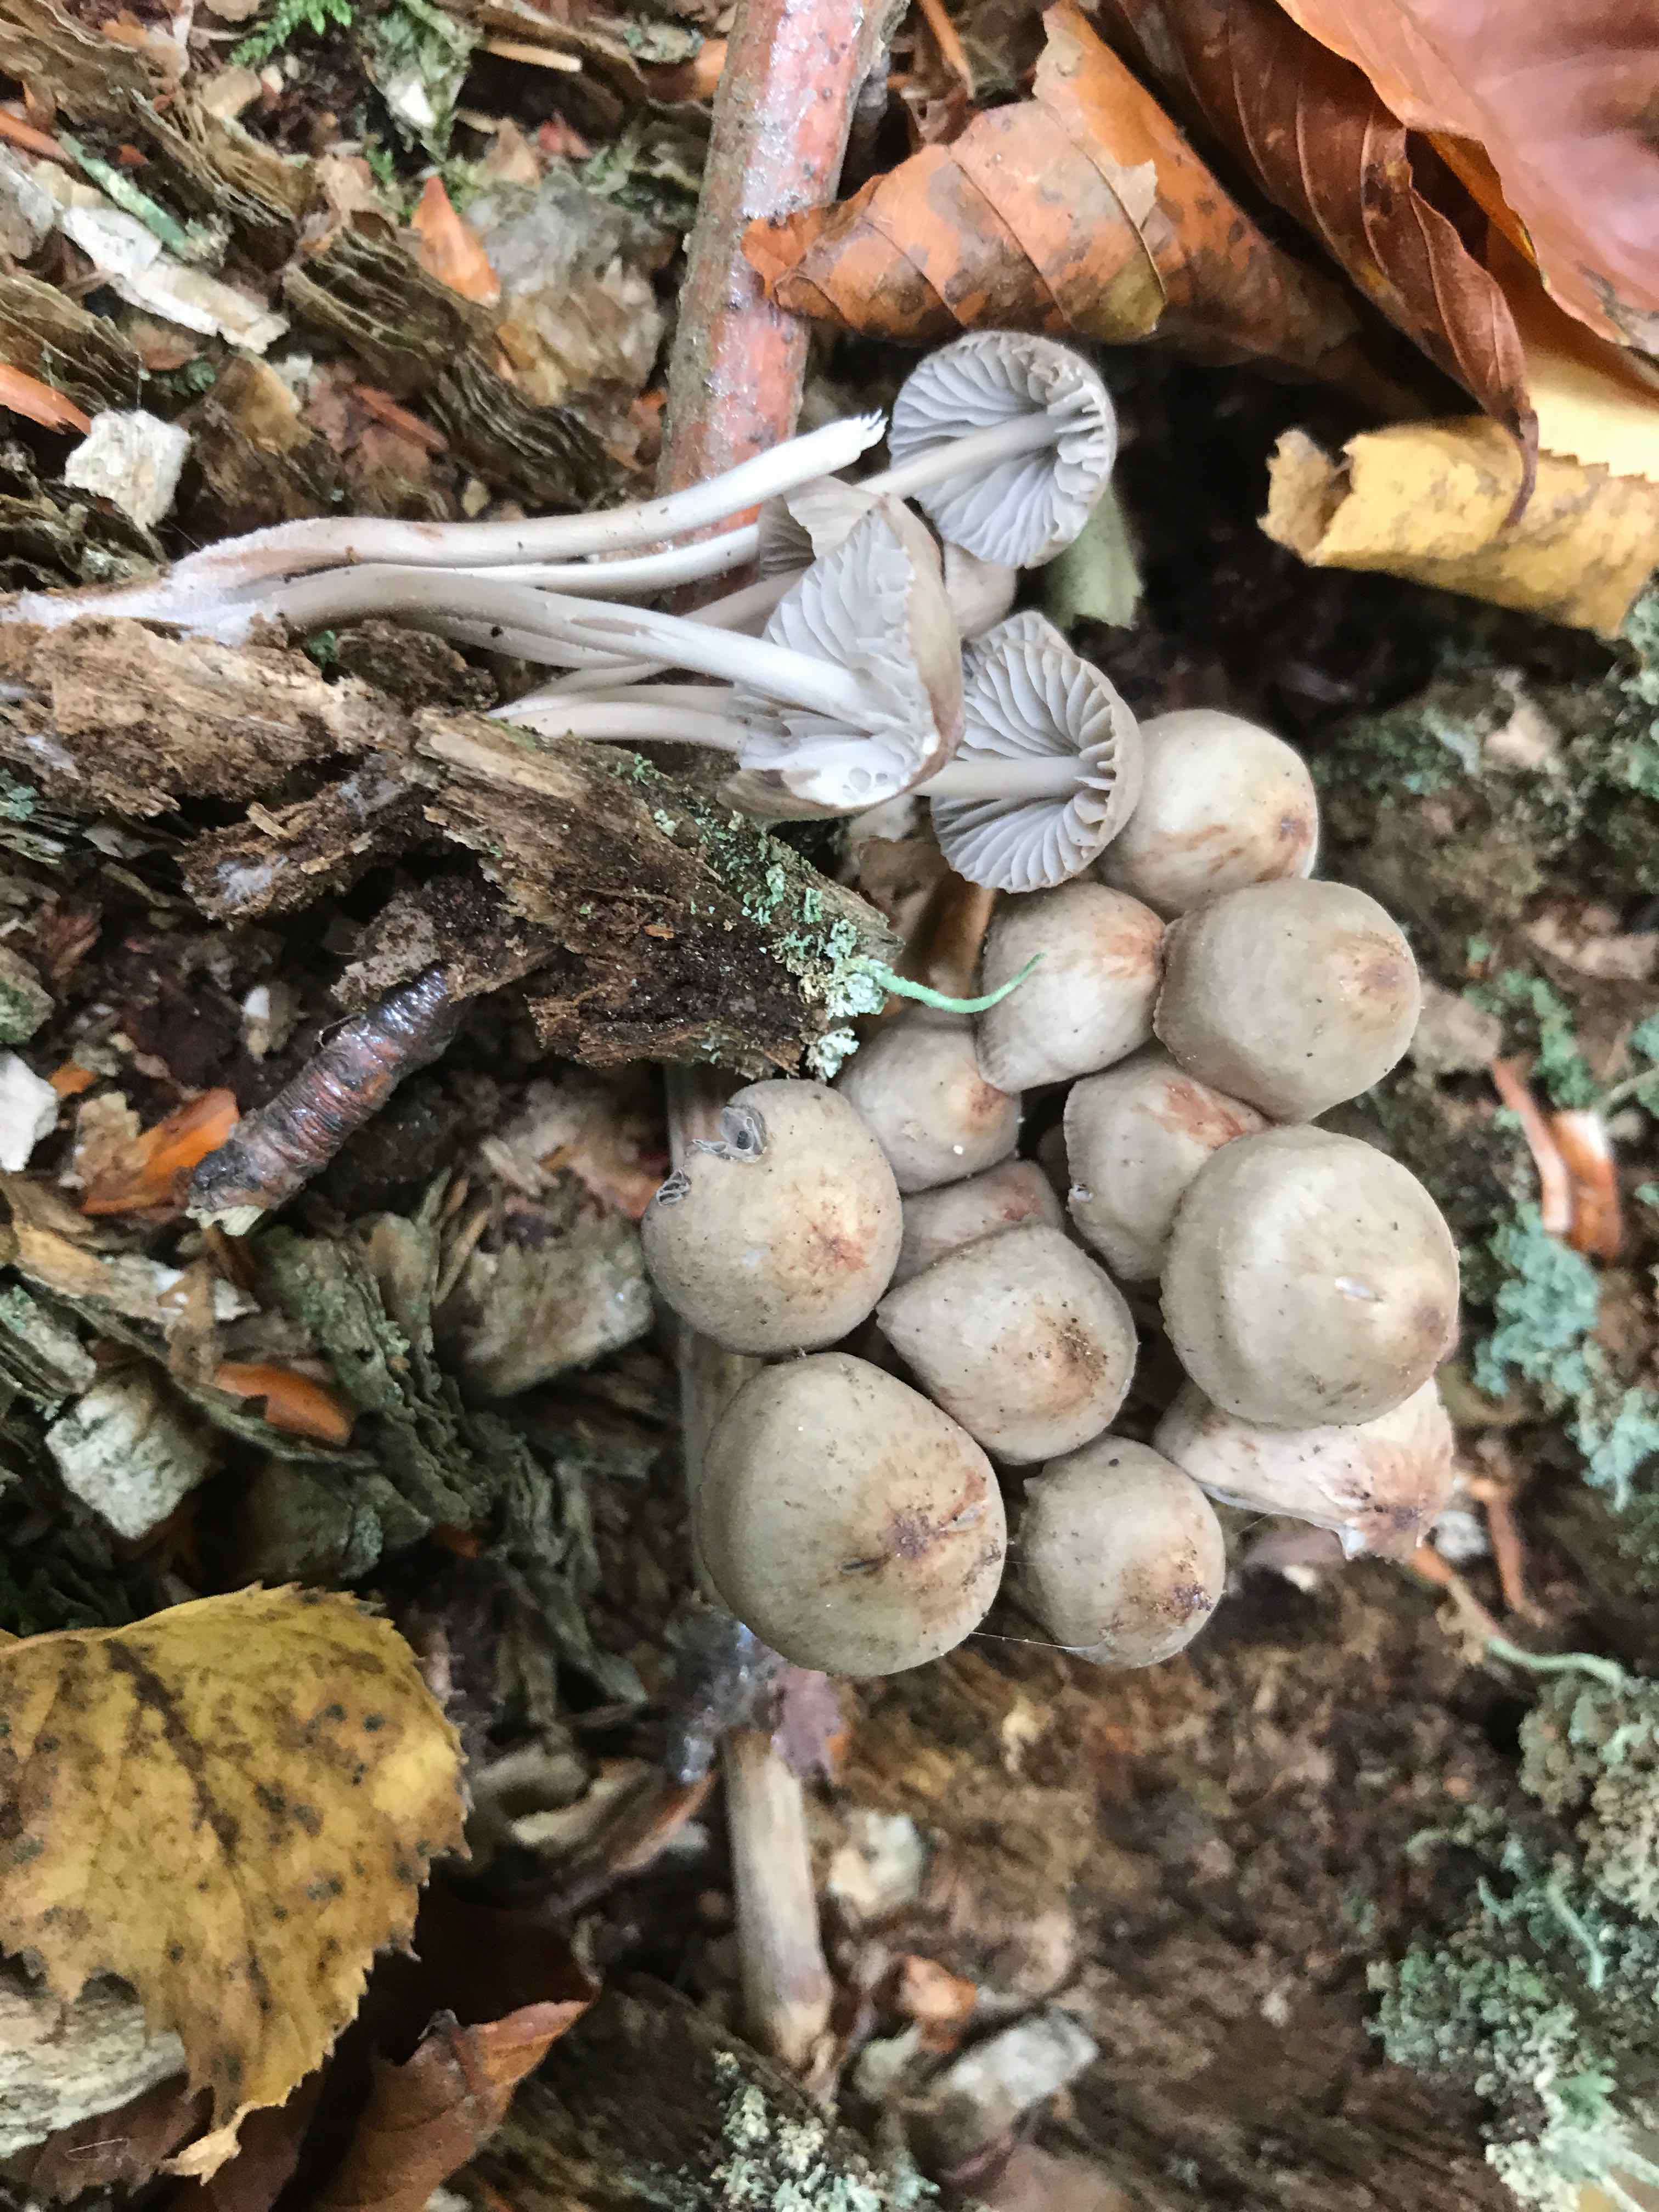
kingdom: Fungi
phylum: Basidiomycota
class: Agaricomycetes
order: Agaricales
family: Mycenaceae
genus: Mycena
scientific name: Mycena maculata
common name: rødplettet huesvamp
